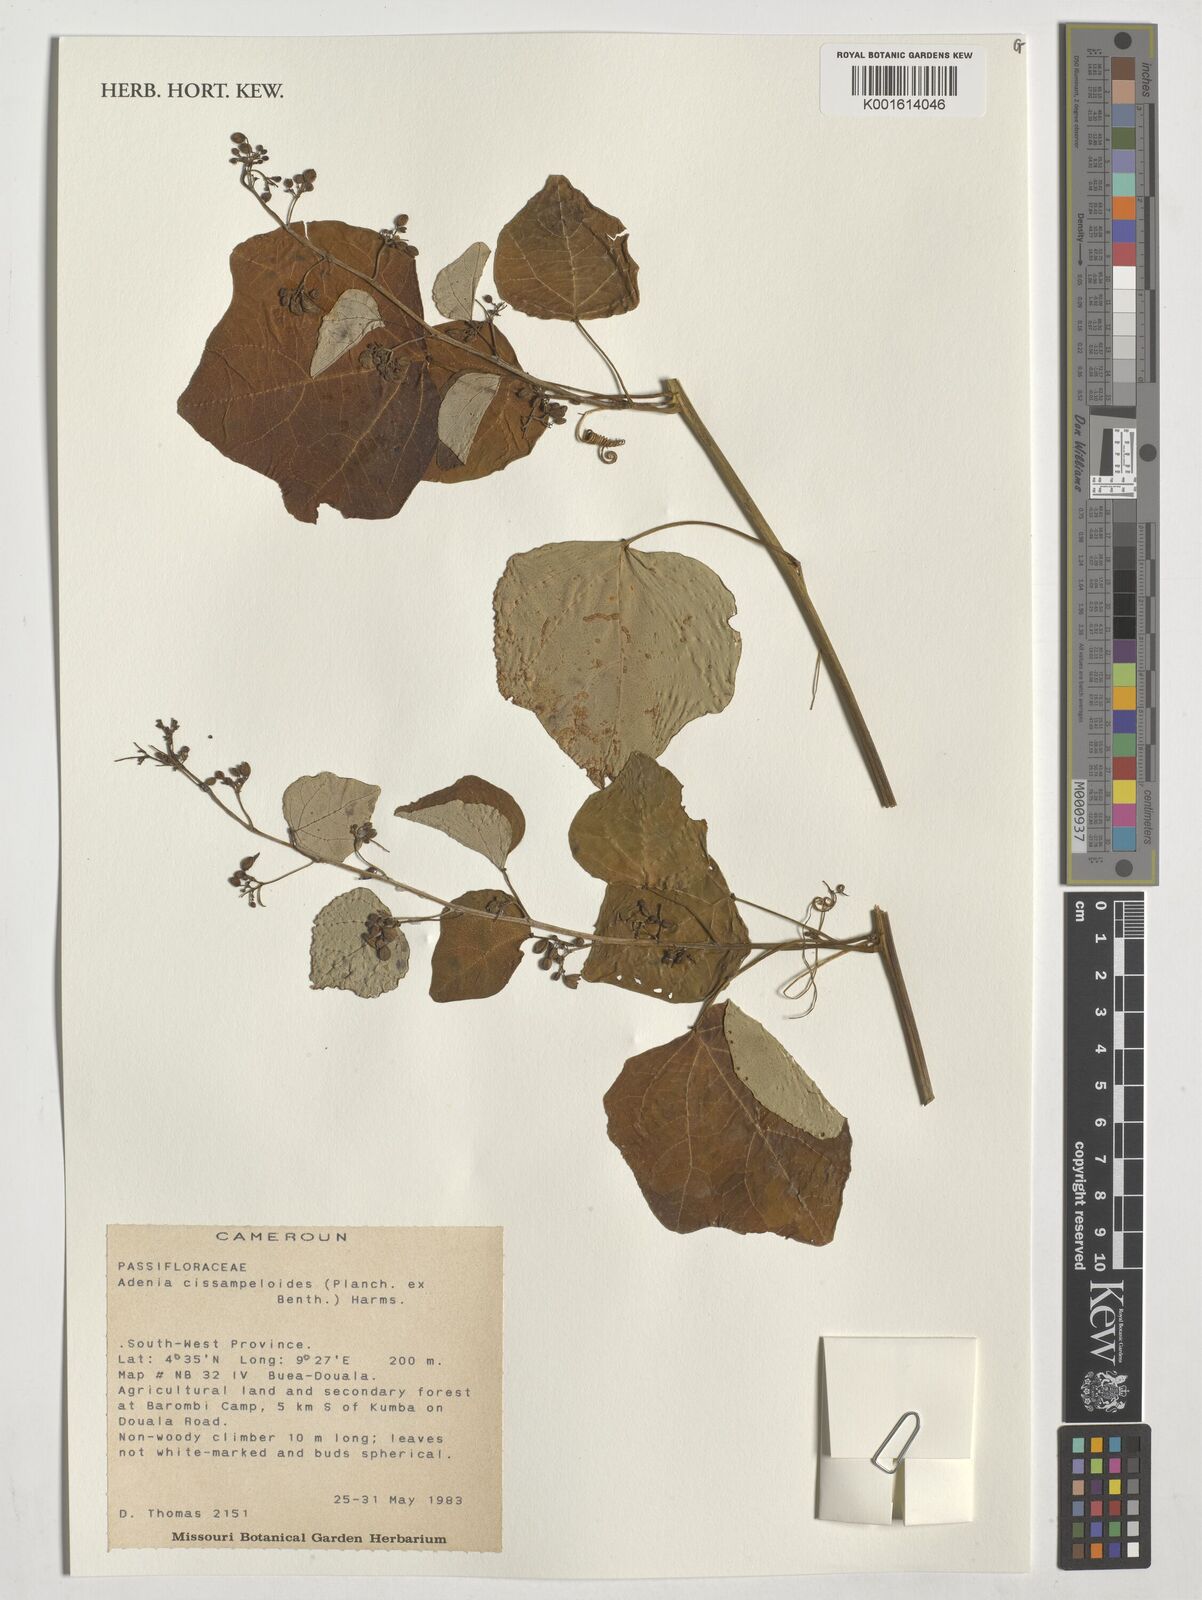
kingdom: Plantae
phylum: Tracheophyta
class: Magnoliopsida
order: Malpighiales
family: Passifloraceae
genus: Adenia
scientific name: Adenia cissampeloides
